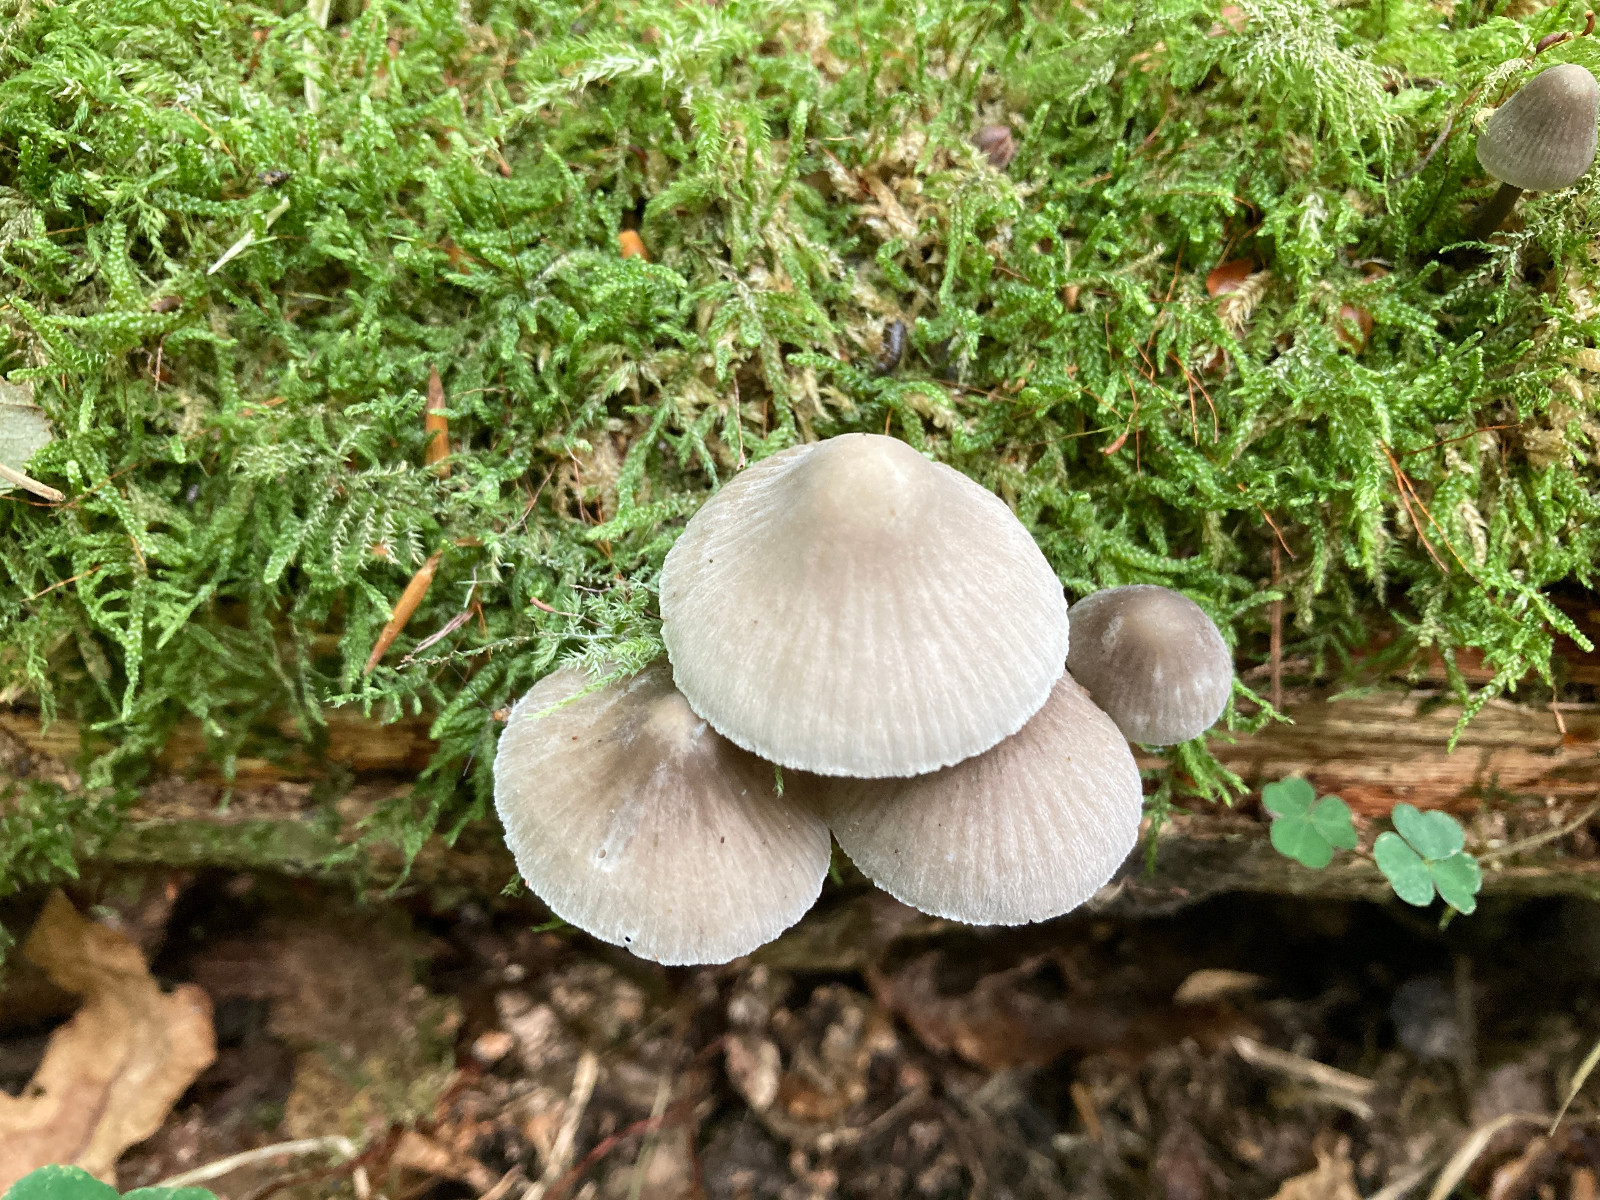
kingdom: Fungi
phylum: Basidiomycota
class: Agaricomycetes
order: Agaricales
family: Mycenaceae
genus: Mycena
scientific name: Mycena abramsii
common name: sommer-huesvamp
